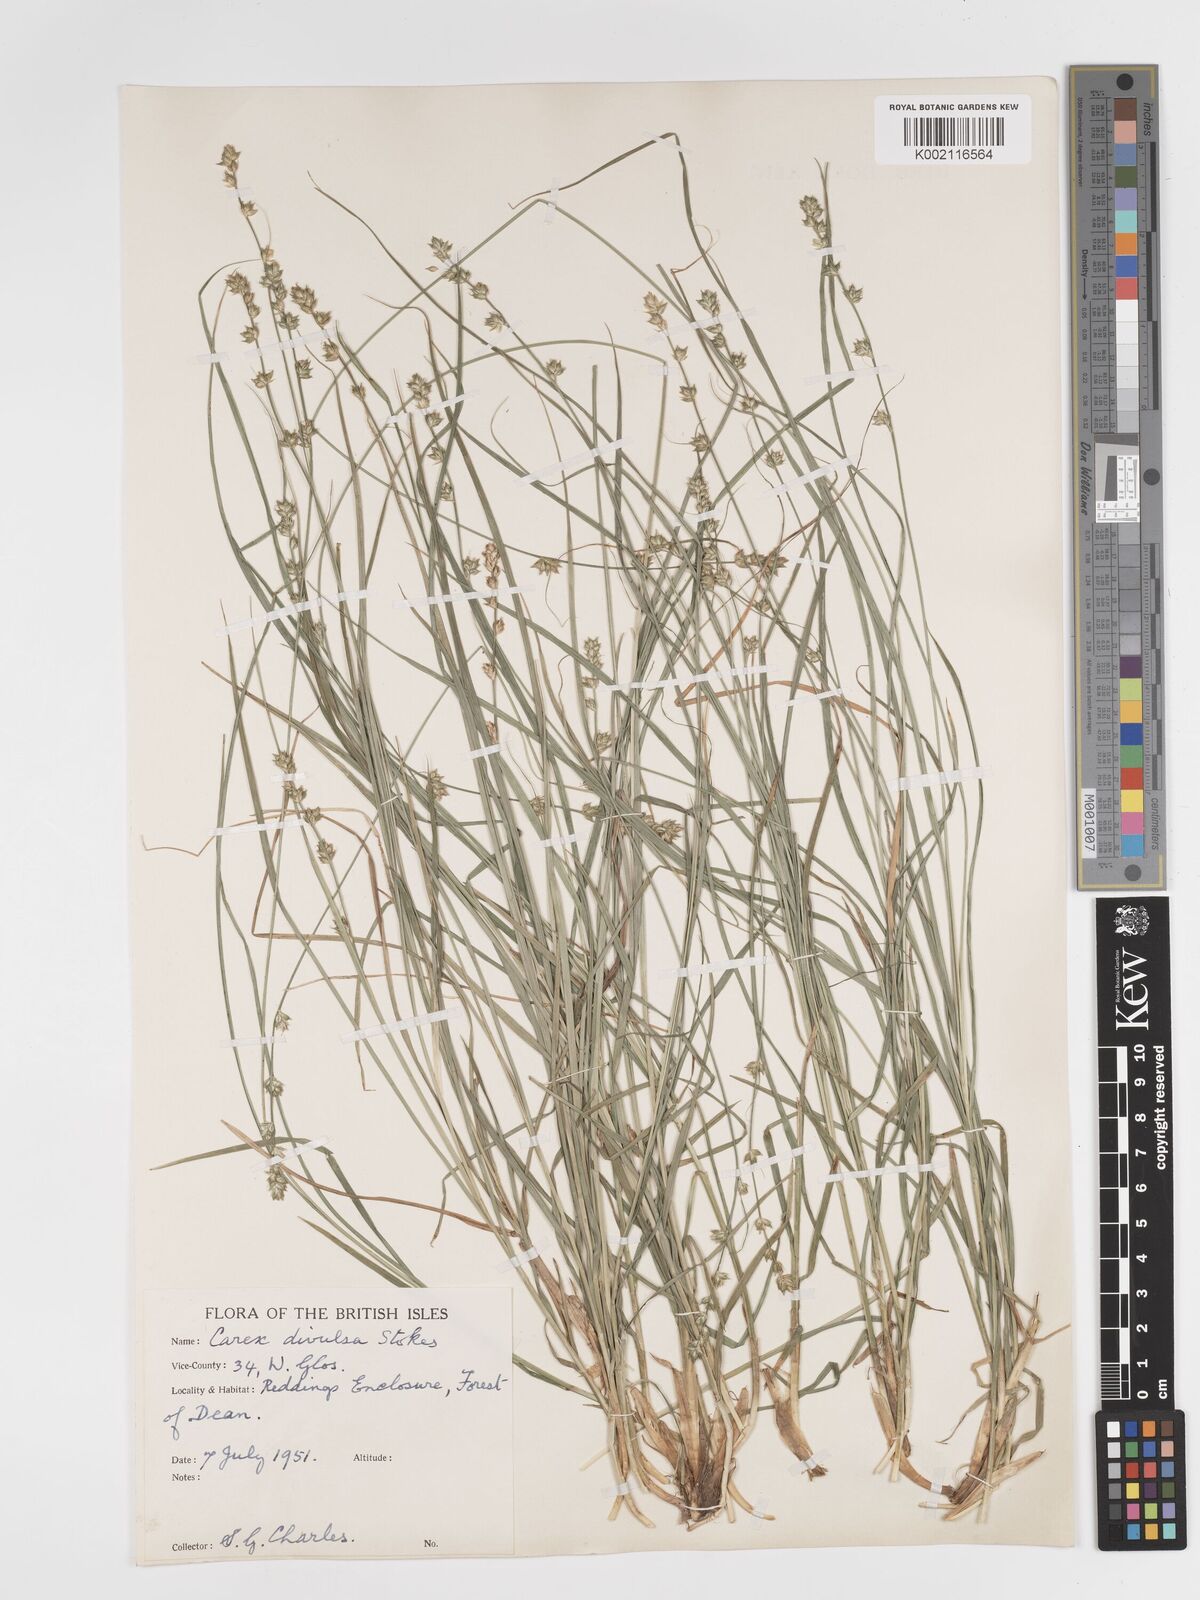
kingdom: Plantae
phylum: Tracheophyta
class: Liliopsida
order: Poales
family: Cyperaceae
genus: Carex
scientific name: Carex divulsa
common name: Grassland sedge
